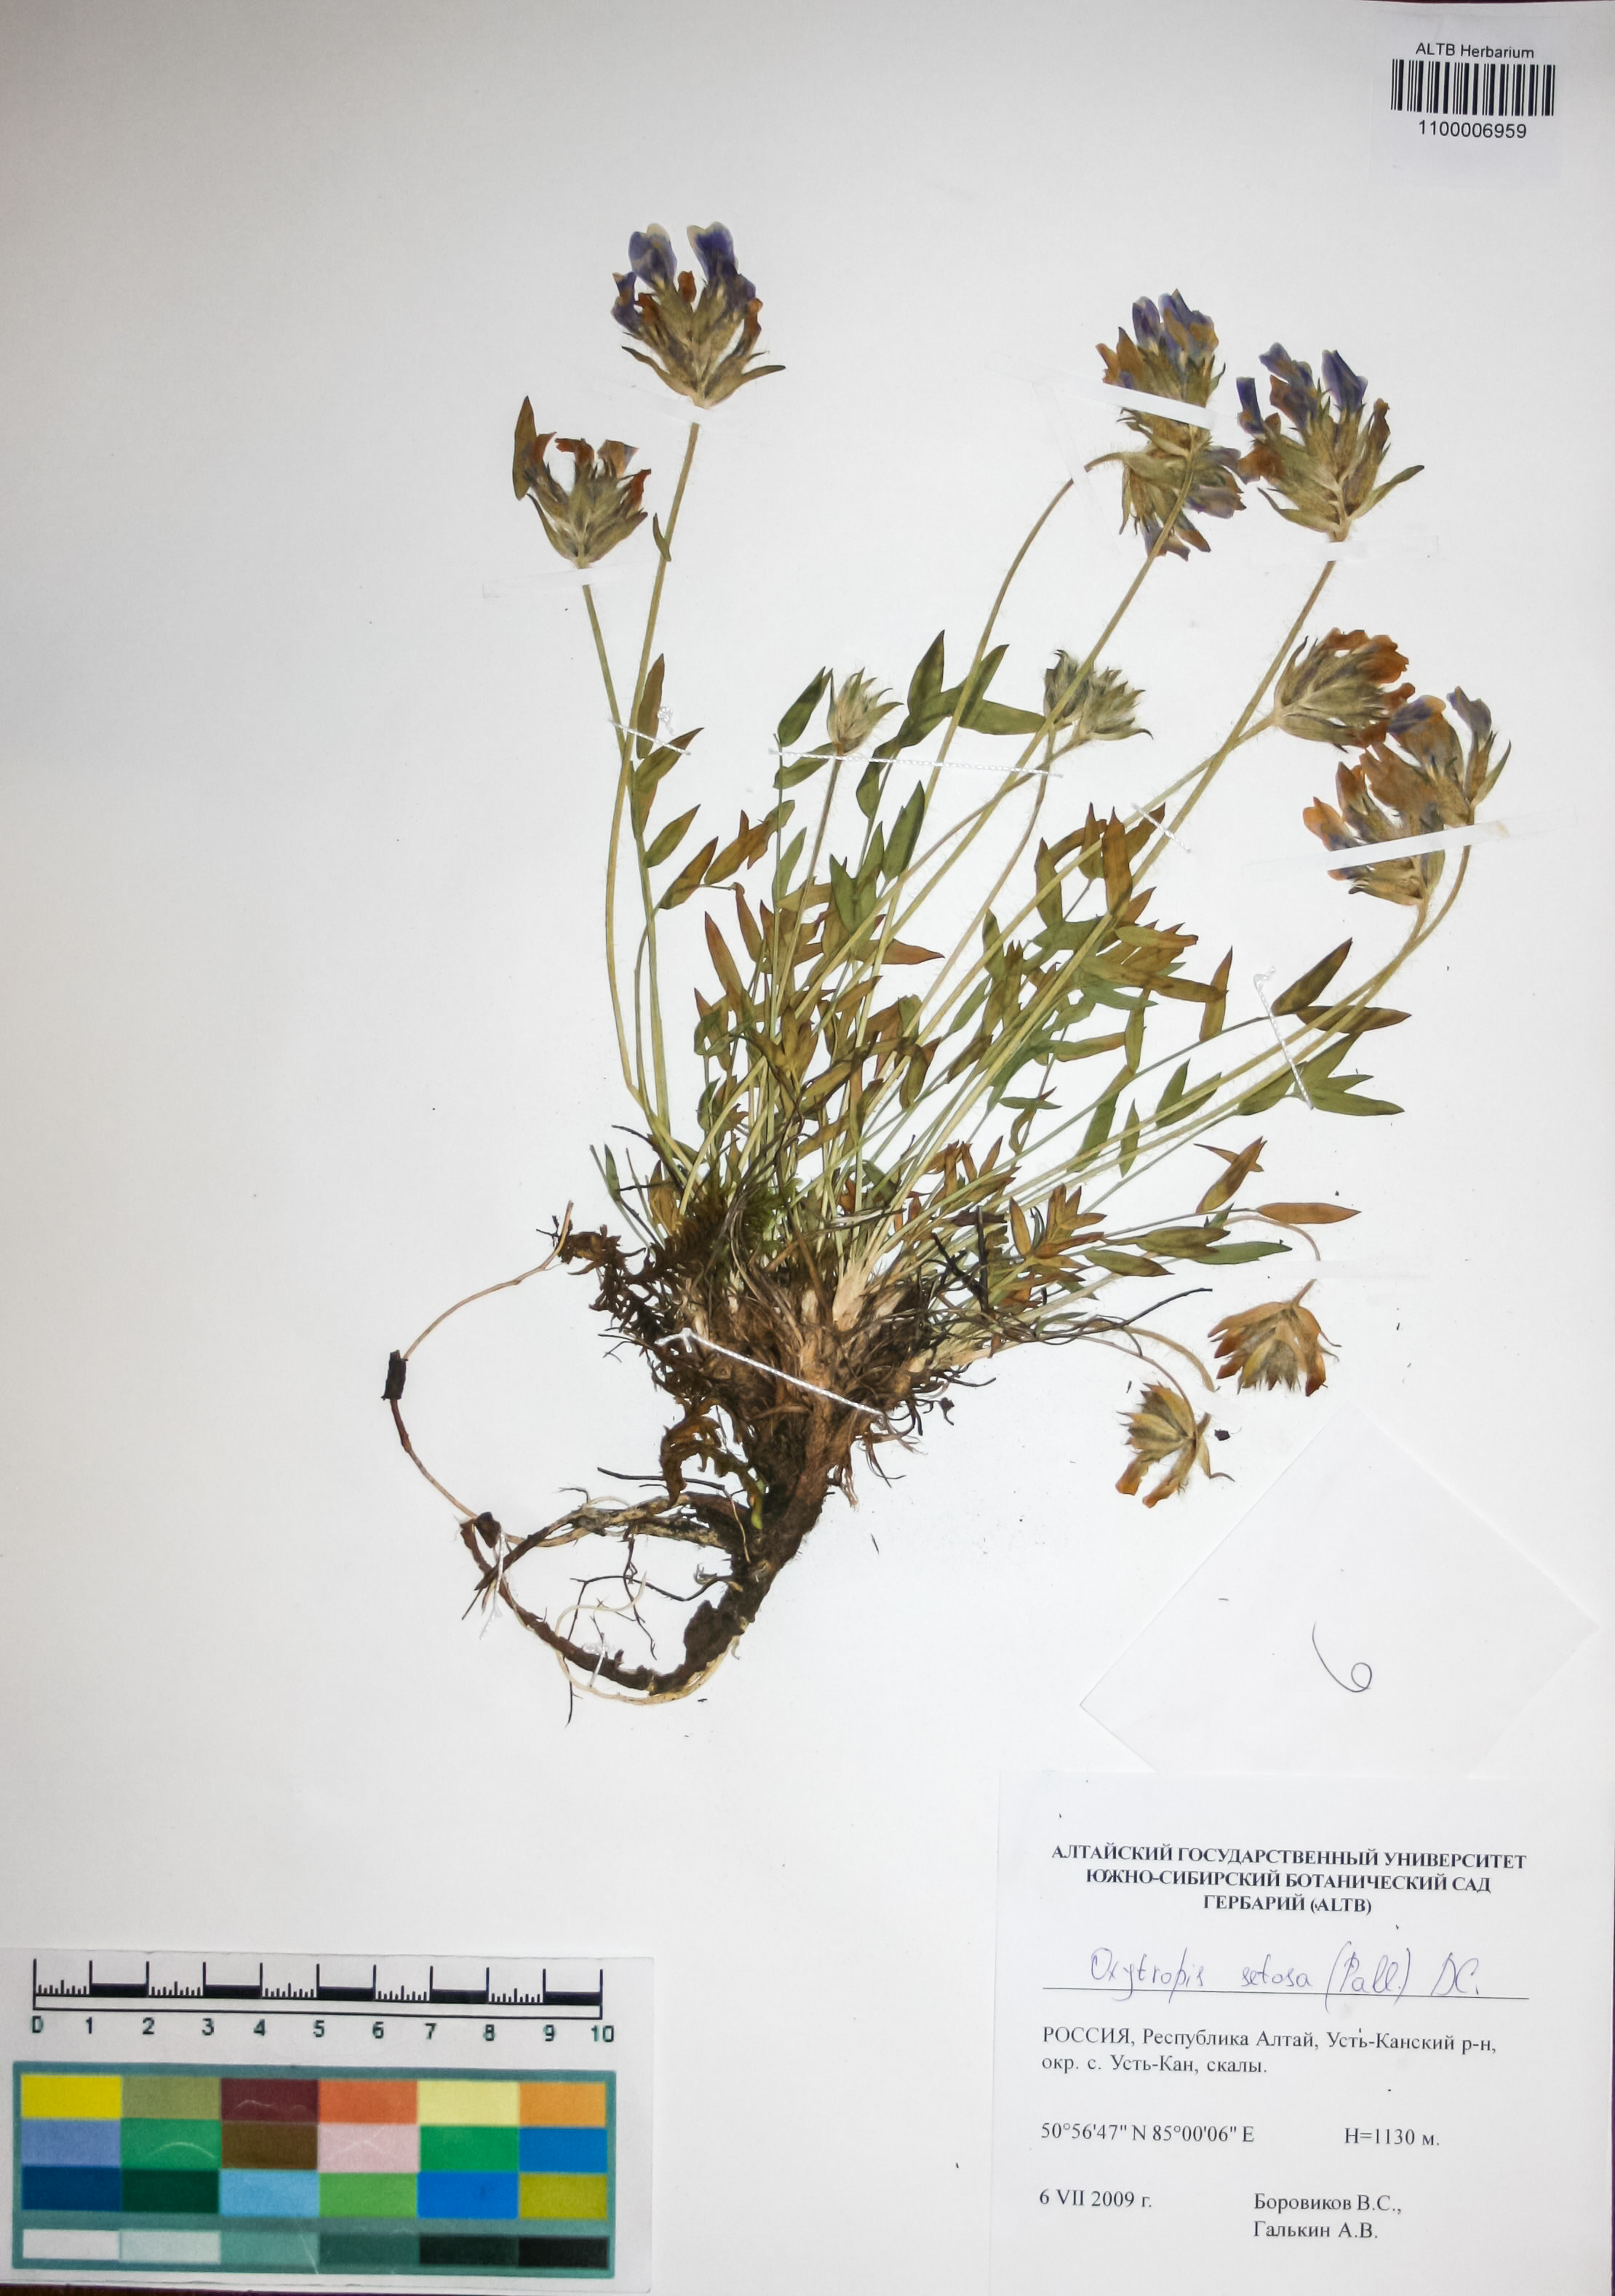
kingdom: Plantae
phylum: Tracheophyta
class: Magnoliopsida
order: Fabales
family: Fabaceae
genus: Oxytropis
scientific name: Oxytropis setosa
